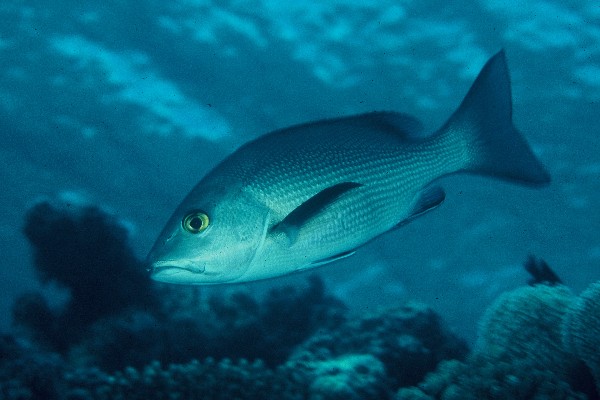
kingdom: Animalia
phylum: Chordata
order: Perciformes
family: Lutjanidae
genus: Lutjanus
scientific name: Lutjanus bohar
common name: Red bass
